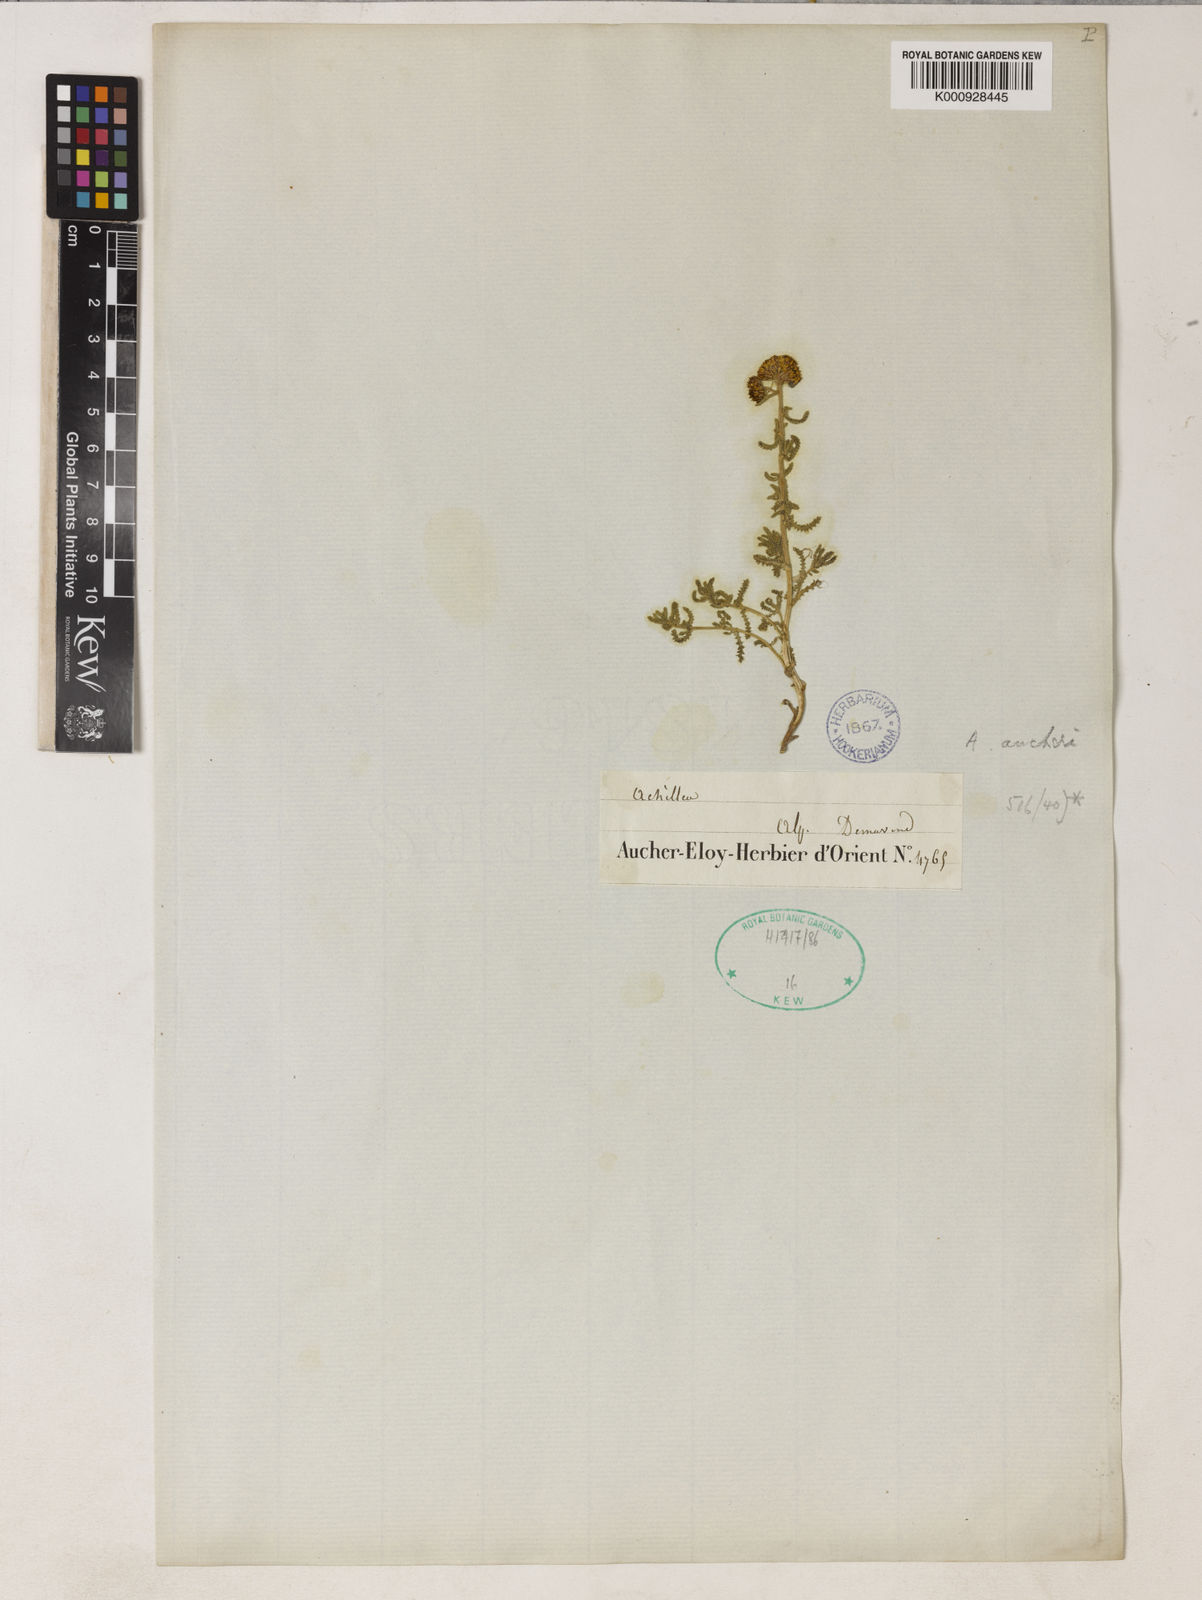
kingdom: Plantae
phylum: Tracheophyta
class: Magnoliopsida
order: Asterales
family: Asteraceae
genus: Achillea
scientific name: Achillea aucheri
